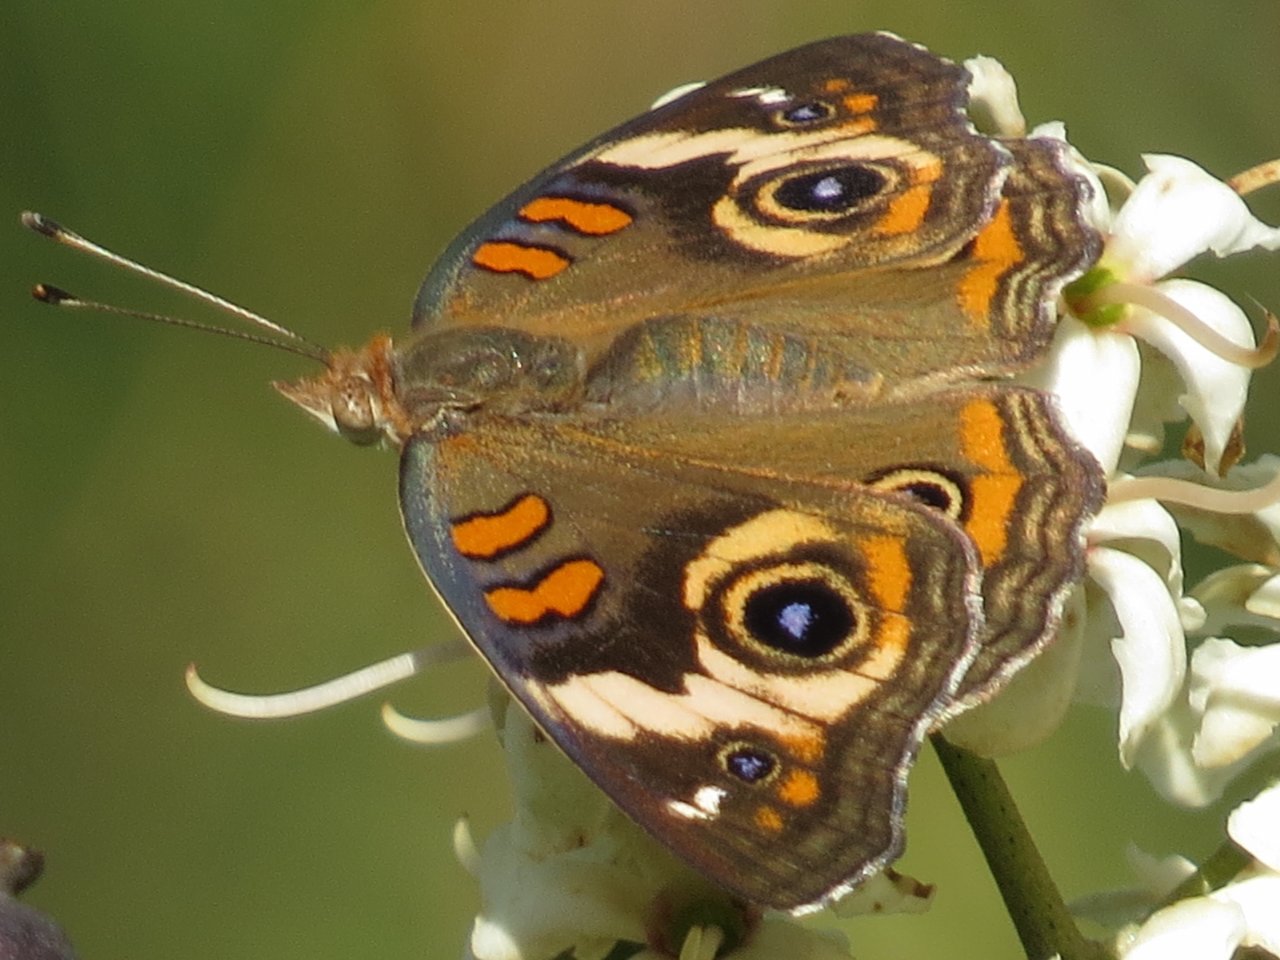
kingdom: Animalia
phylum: Arthropoda
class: Insecta
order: Lepidoptera
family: Nymphalidae
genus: Junonia
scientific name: Junonia coenia
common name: Common Buckeye
